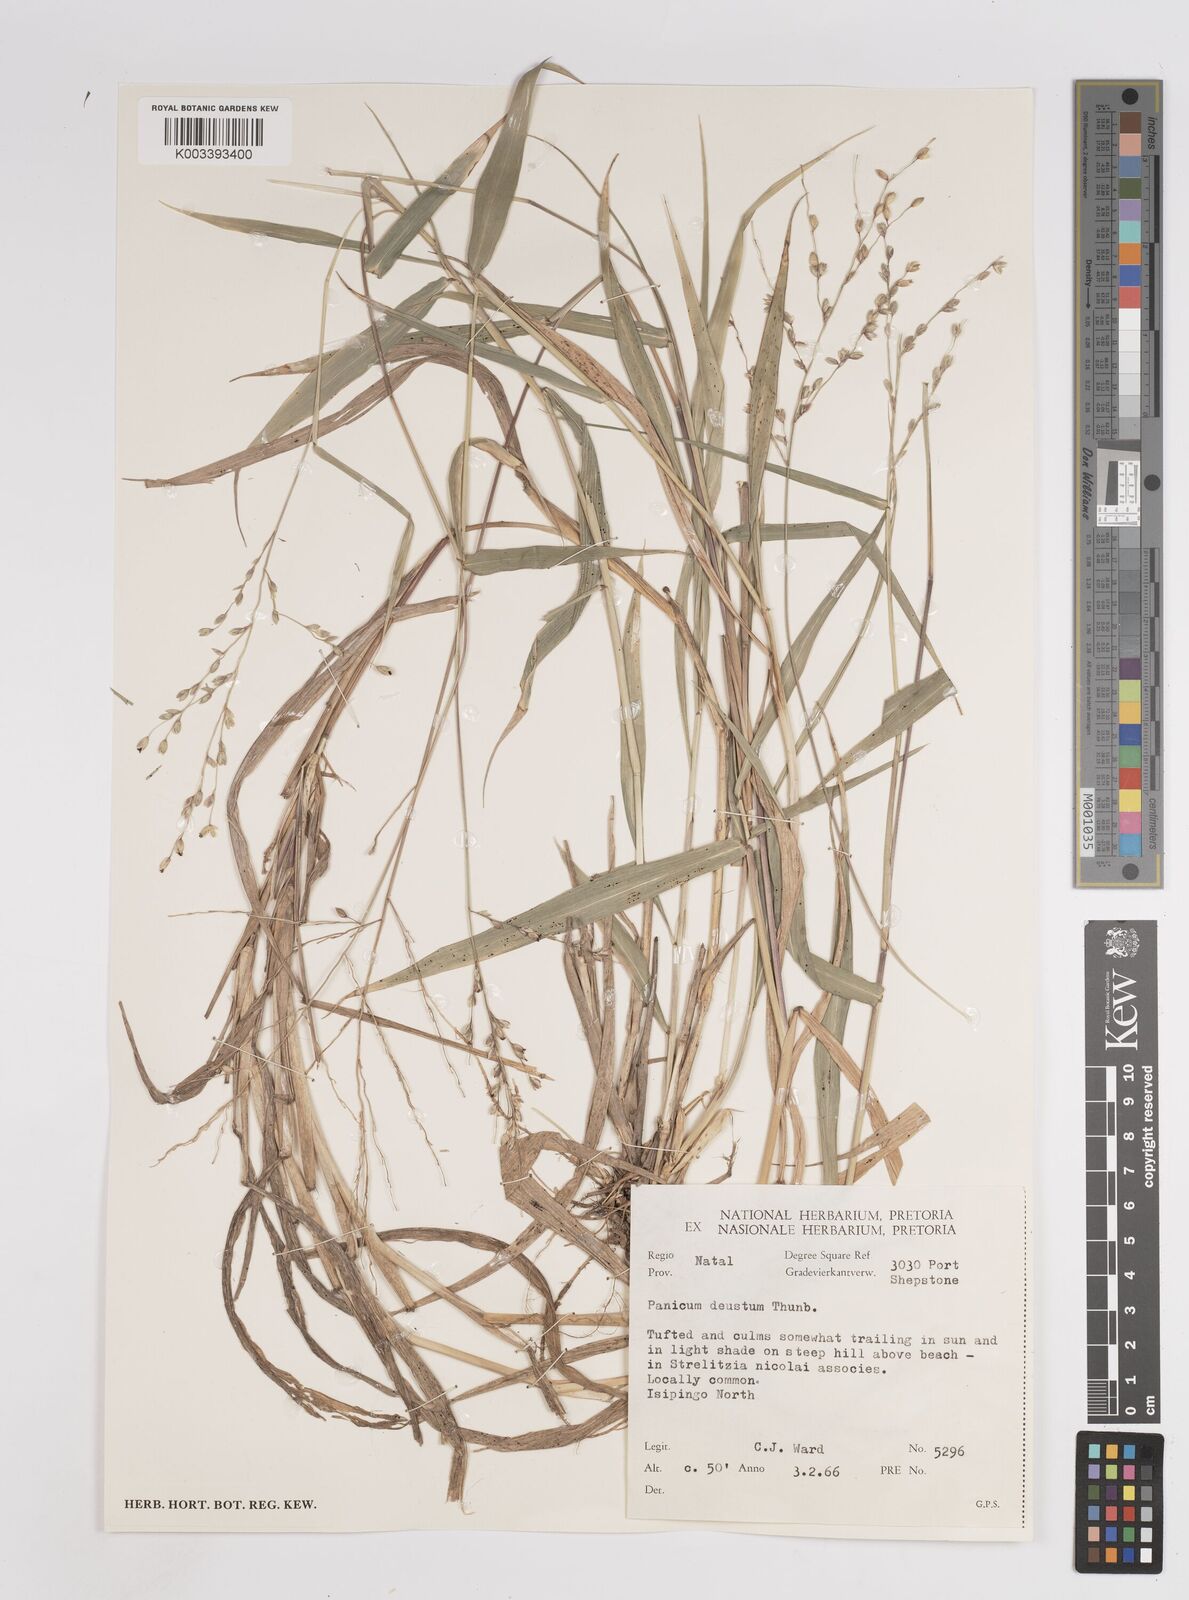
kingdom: Plantae
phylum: Tracheophyta
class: Liliopsida
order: Poales
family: Poaceae
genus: Panicum
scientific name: Panicum deustum
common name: Reed panicum
